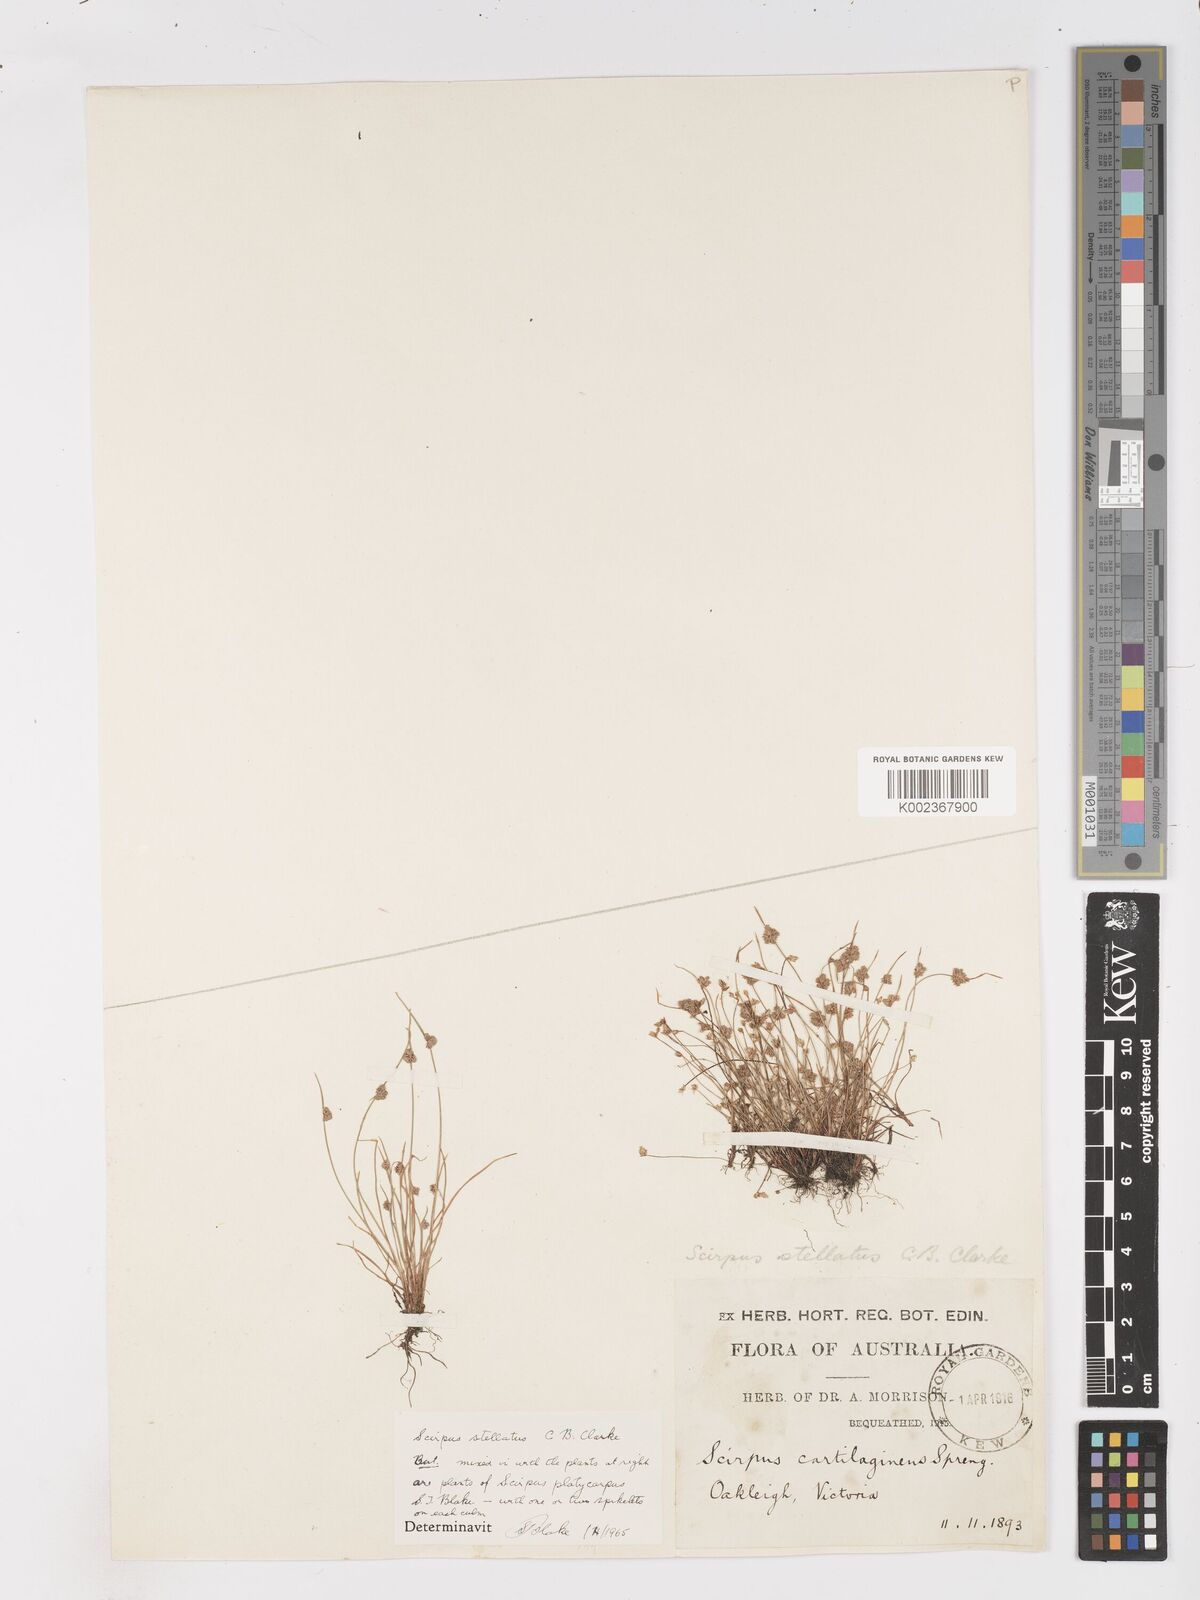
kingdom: Plantae
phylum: Tracheophyta
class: Liliopsida
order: Poales
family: Cyperaceae
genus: Isolepis
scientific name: Isolepis stellata
